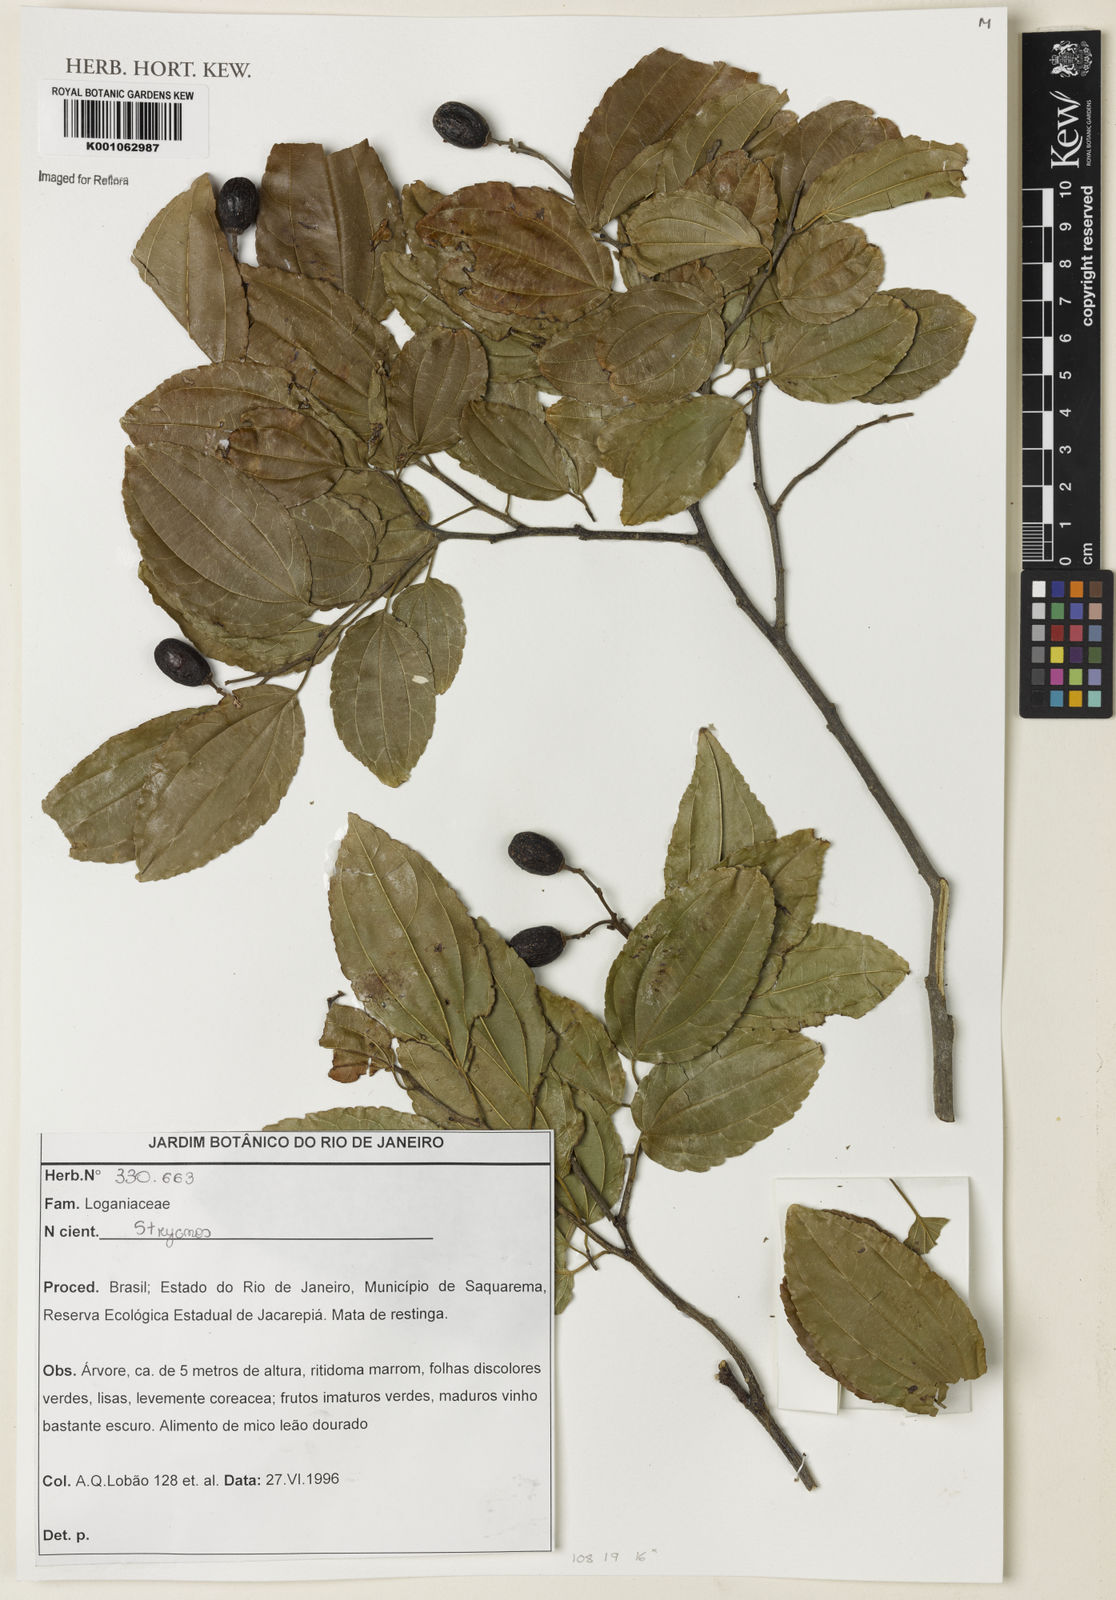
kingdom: Plantae
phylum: Tracheophyta
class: Magnoliopsida
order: Rosales
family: Rhamnaceae
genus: Ziziphus
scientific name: Ziziphus
